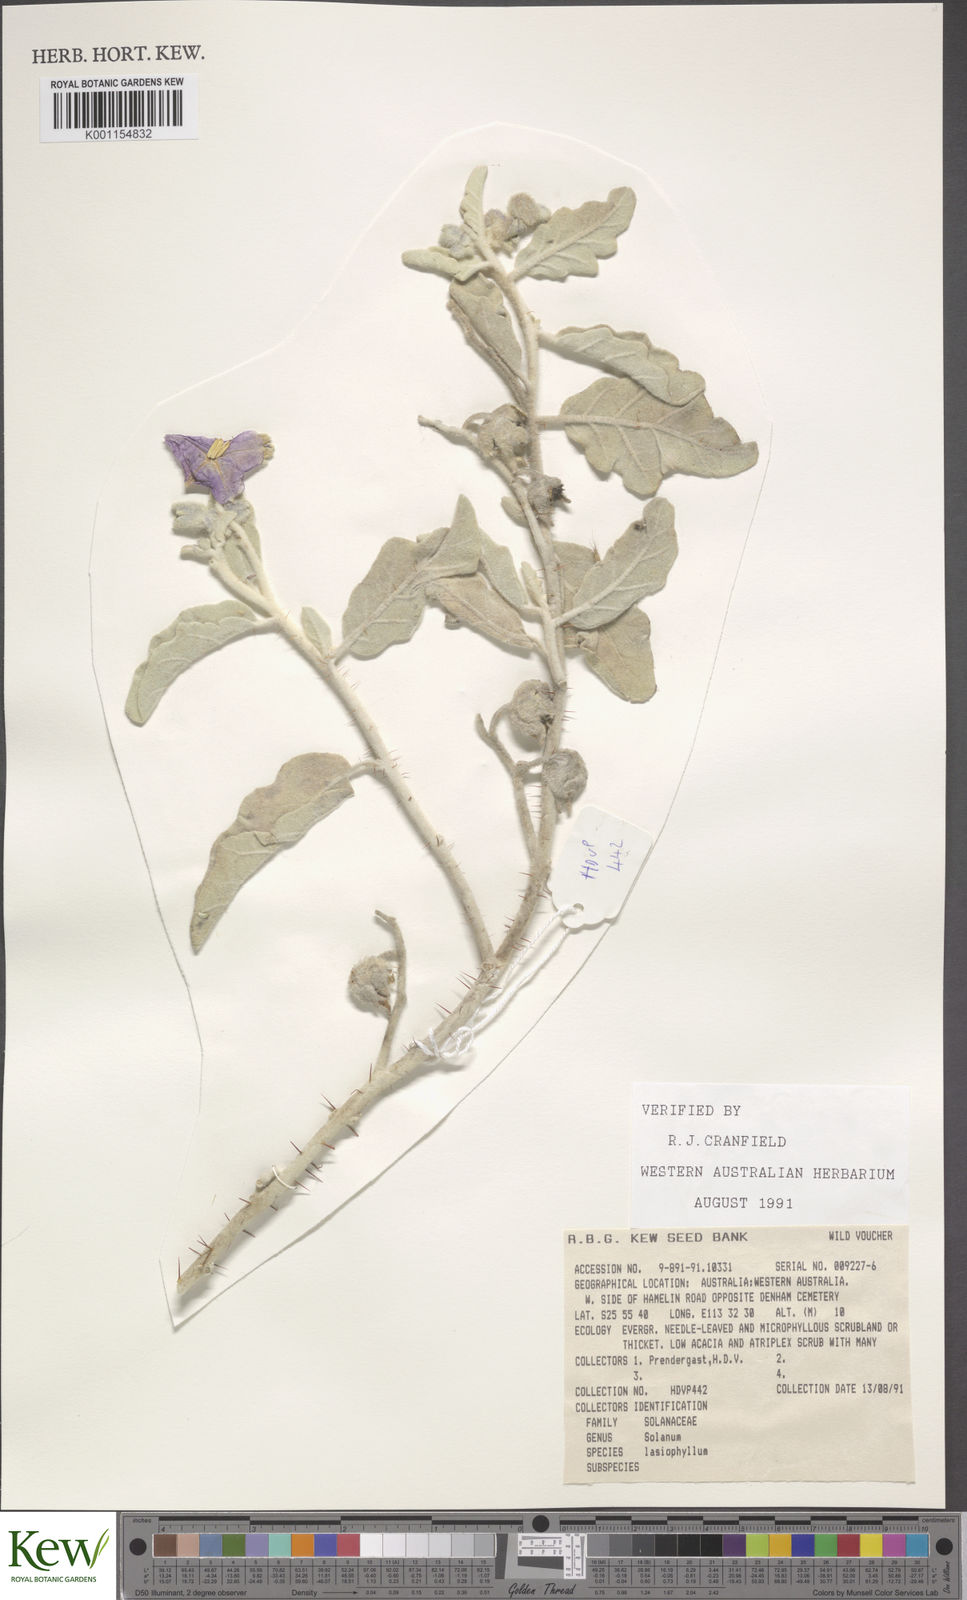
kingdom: Plantae
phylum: Tracheophyta
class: Magnoliopsida
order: Solanales
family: Solanaceae
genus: Solanum
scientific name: Solanum lasiophyllum
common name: Flannelbush
